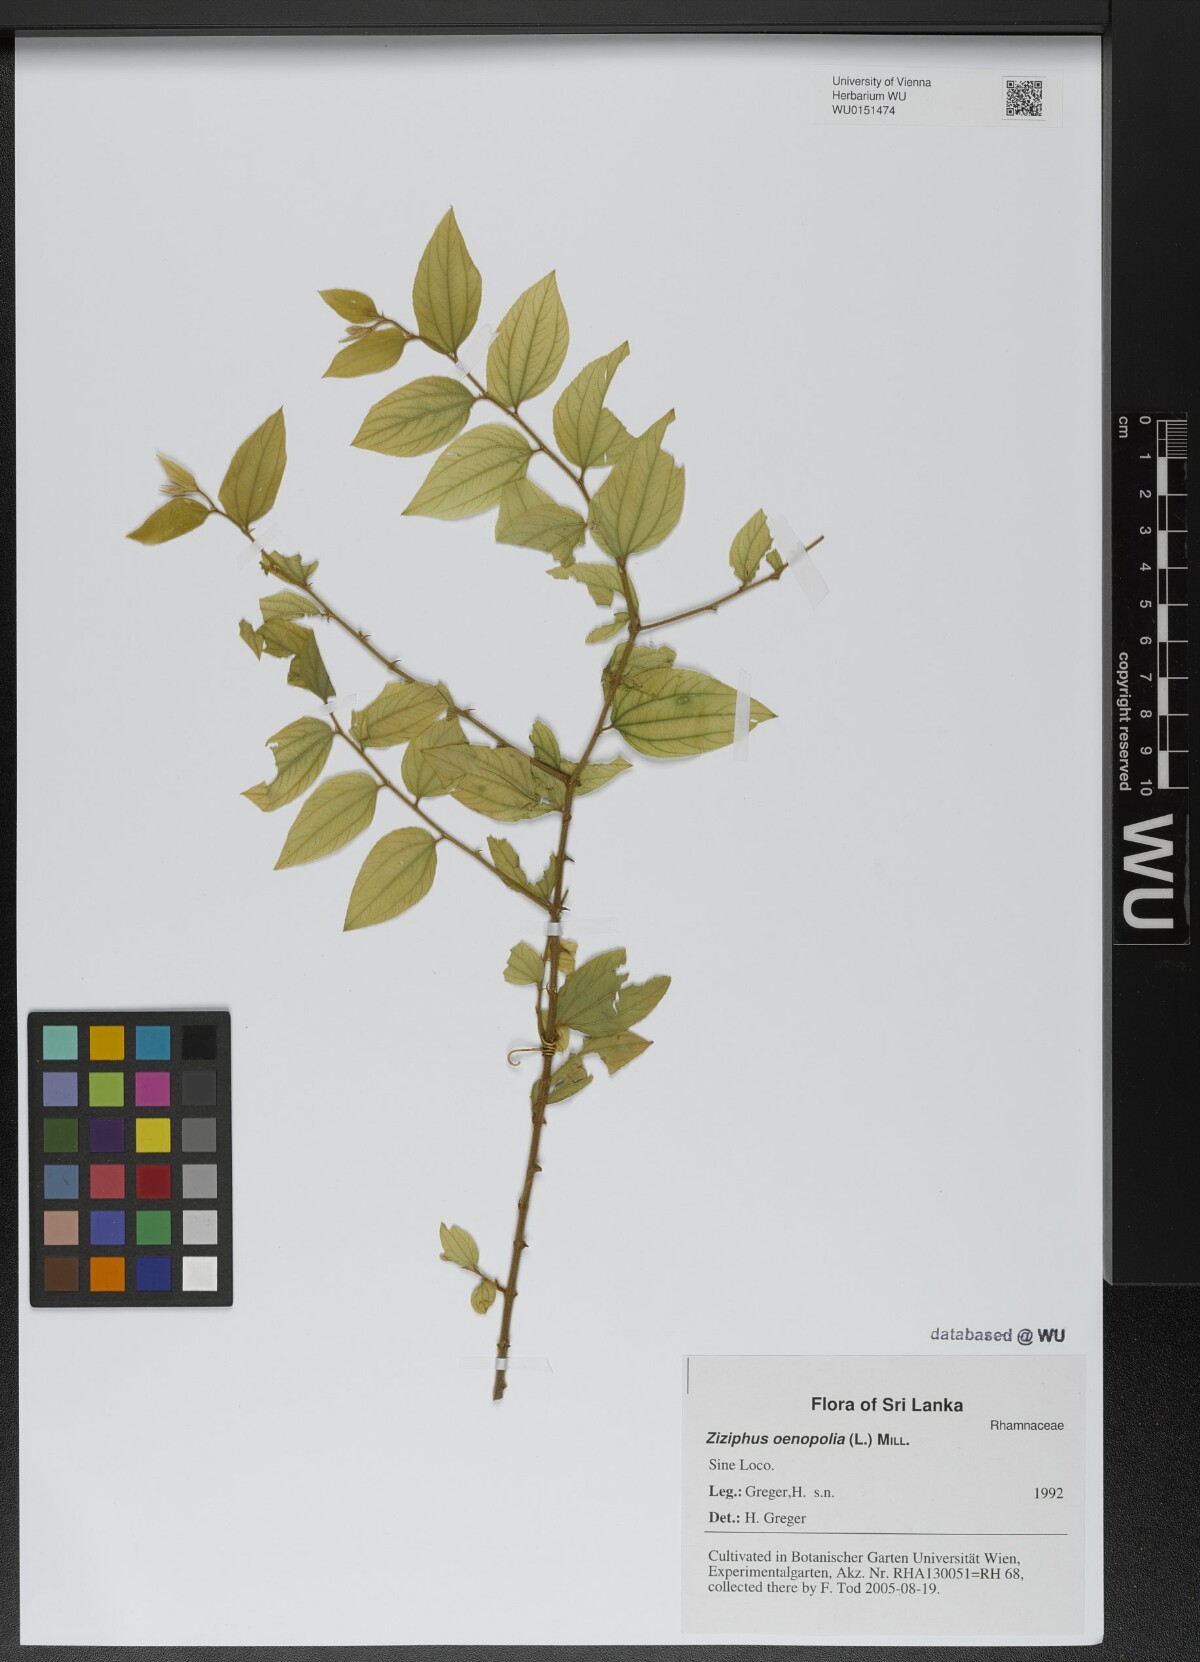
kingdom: Plantae
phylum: Tracheophyta
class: Magnoliopsida
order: Rosales
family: Rhamnaceae
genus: Ziziphus
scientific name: Ziziphus oenopolia
